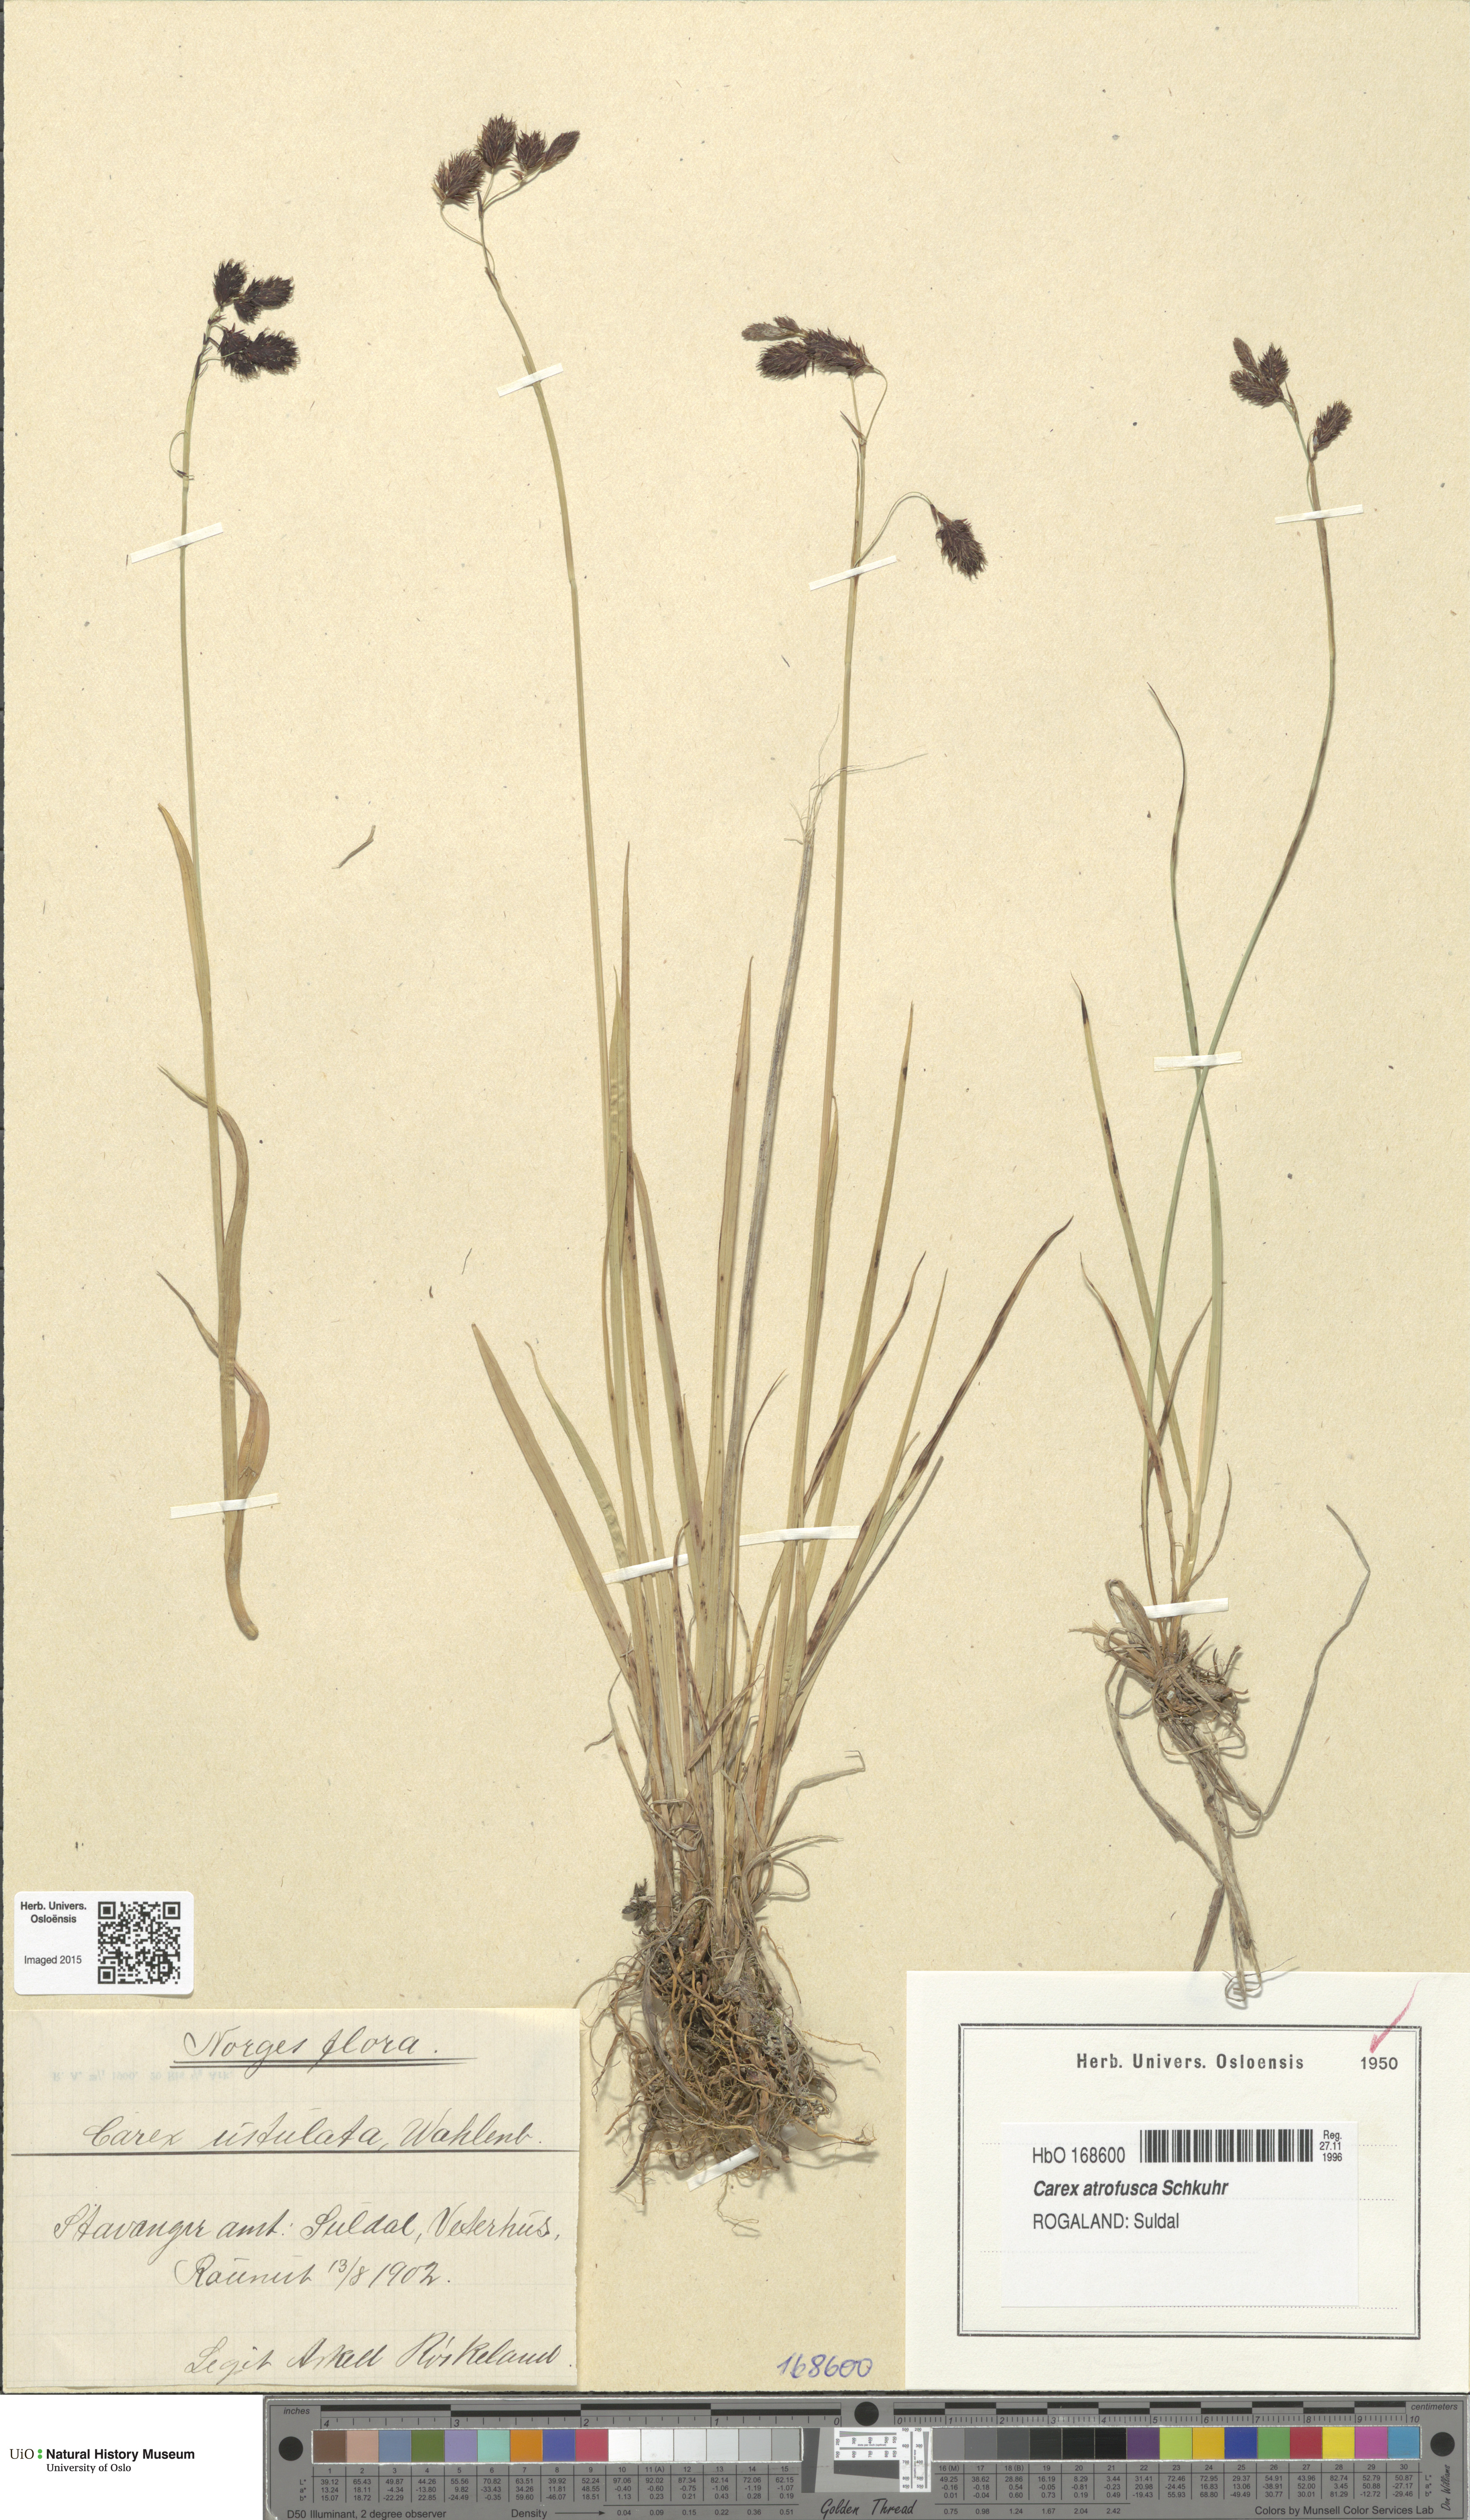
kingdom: Plantae
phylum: Tracheophyta
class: Liliopsida
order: Poales
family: Cyperaceae
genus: Carex
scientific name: Carex atrofusca
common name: Scorched alpine-sedge
